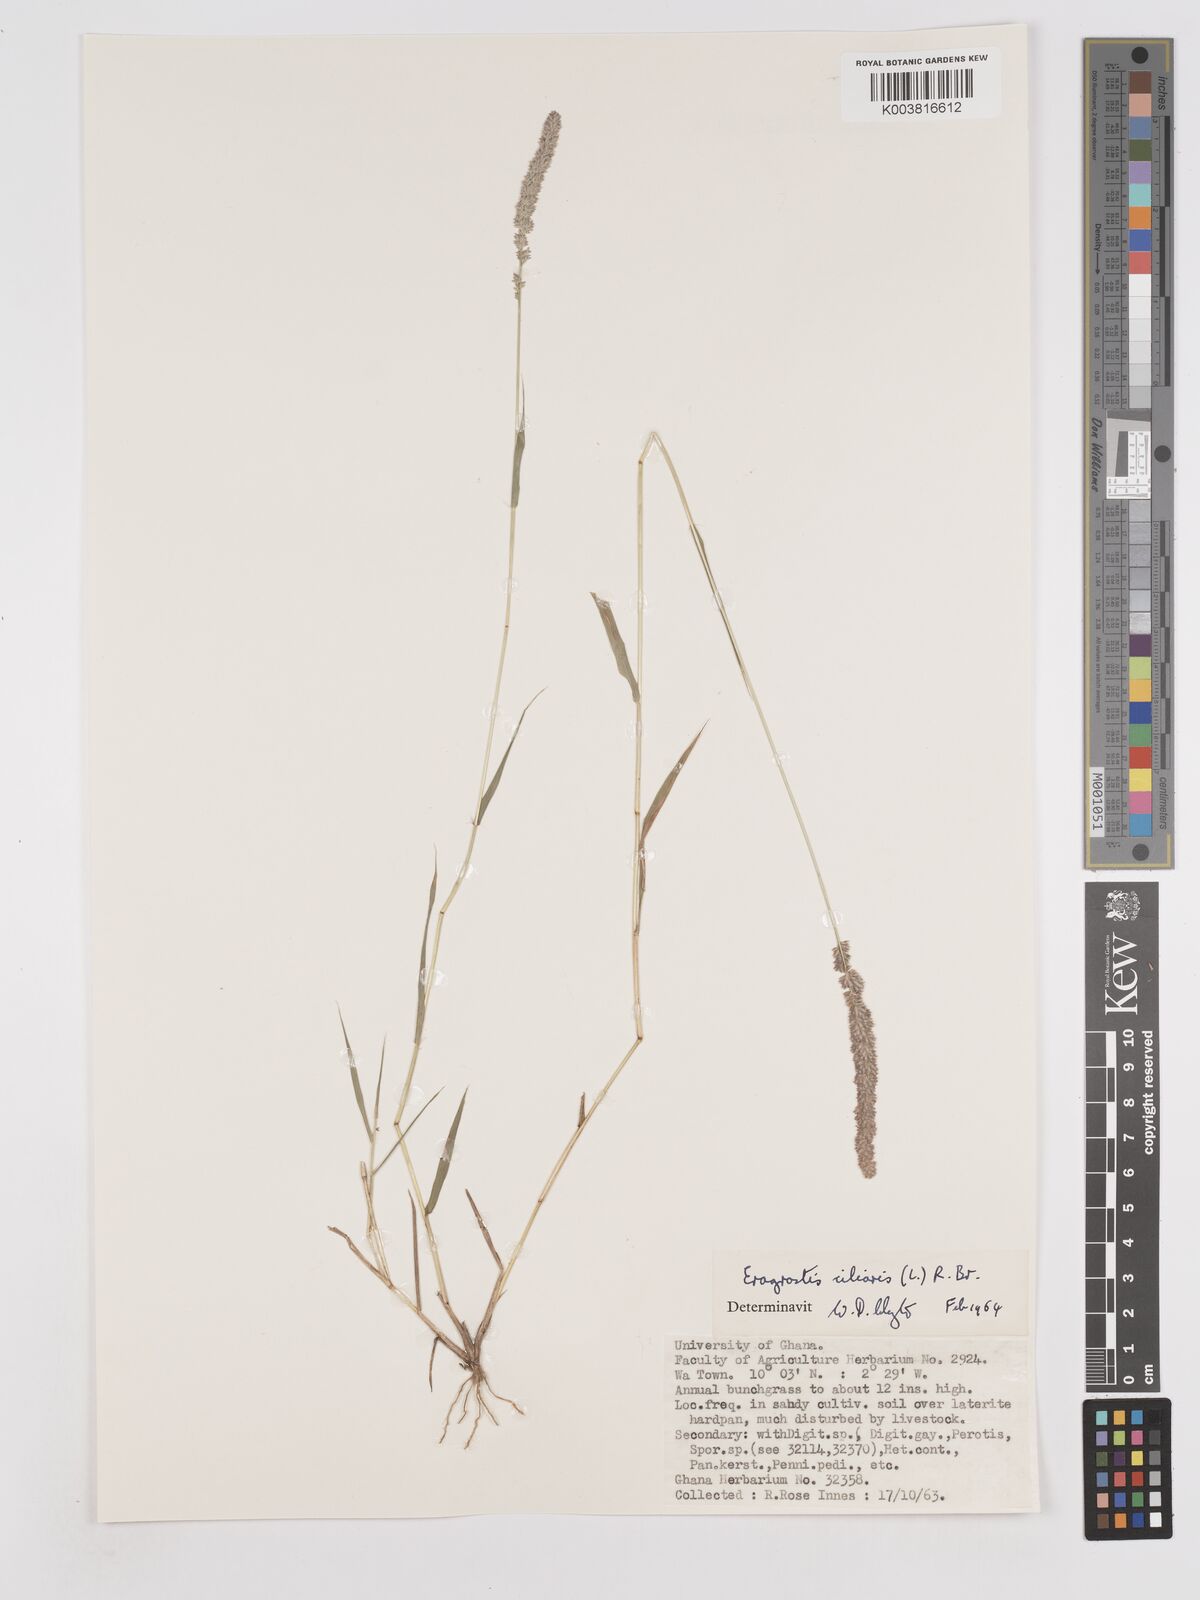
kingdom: Plantae
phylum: Tracheophyta
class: Liliopsida
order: Poales
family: Poaceae
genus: Eragrostis
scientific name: Eragrostis ciliaris
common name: Gophertail lovegrass
